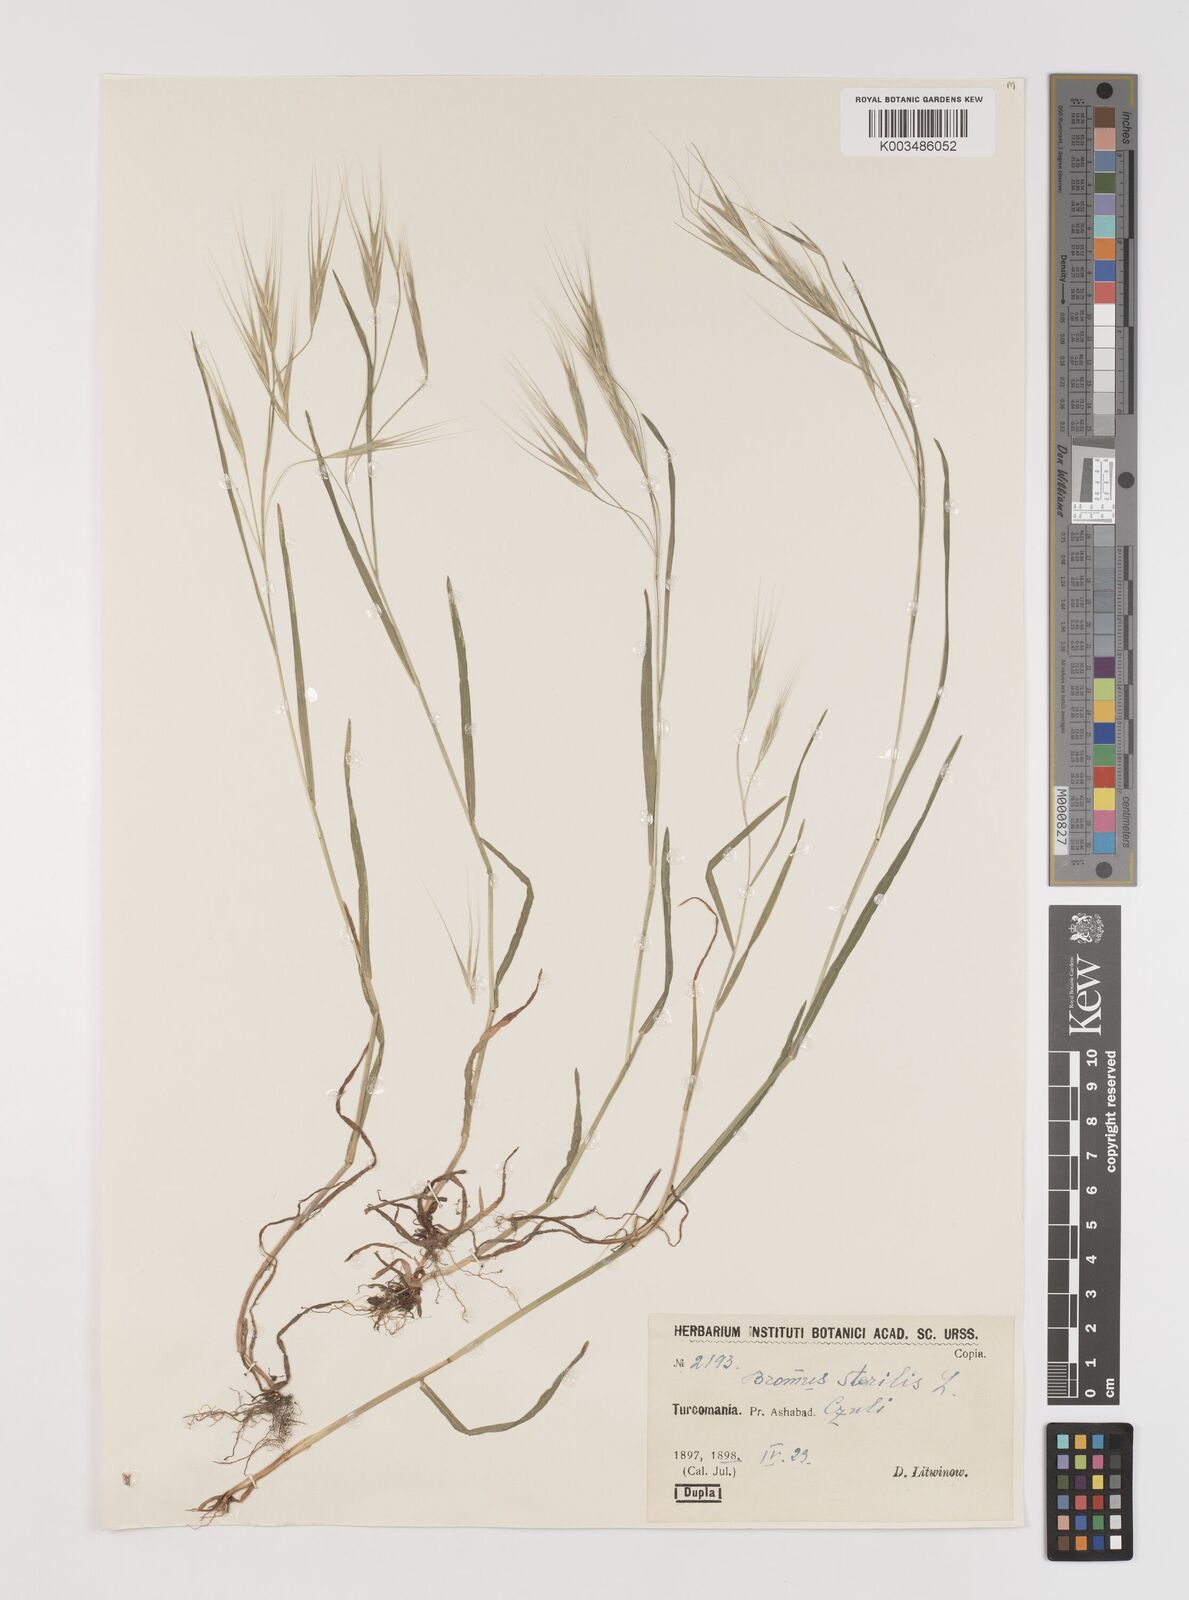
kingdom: Plantae
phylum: Tracheophyta
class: Liliopsida
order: Poales
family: Poaceae
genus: Bromus
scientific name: Bromus sterilis
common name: Poverty brome
